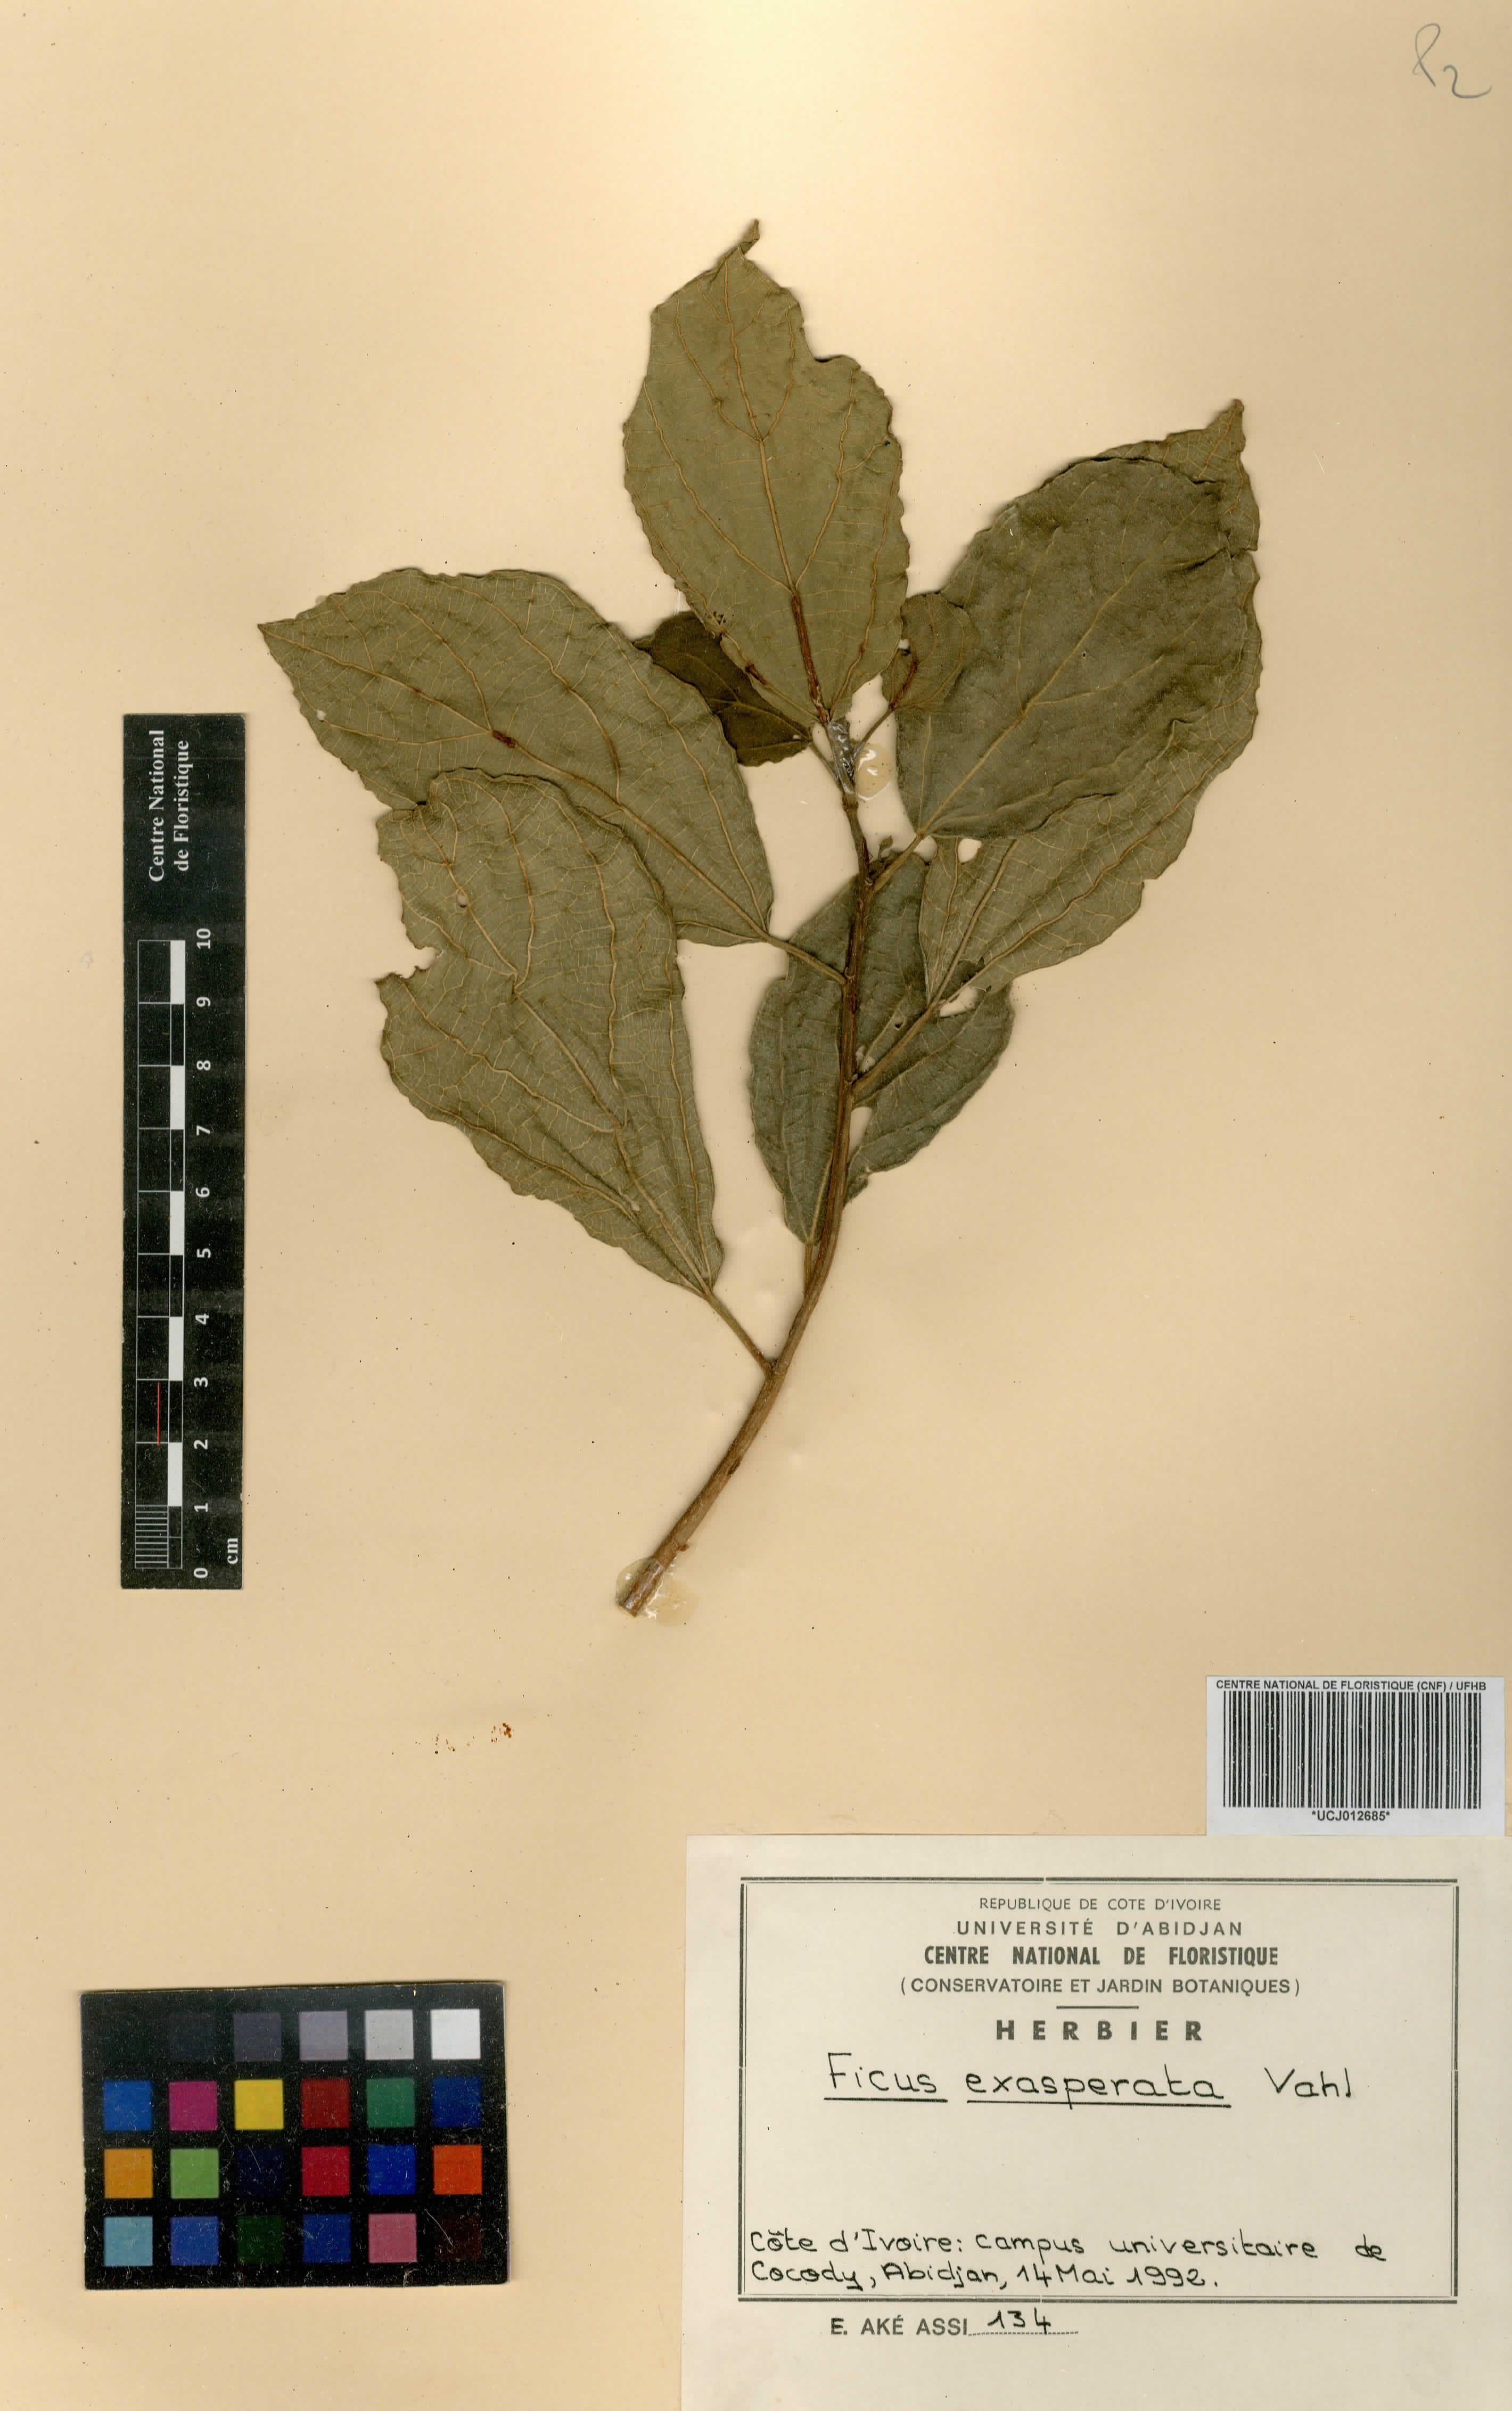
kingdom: Plantae
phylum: Tracheophyta
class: Magnoliopsida
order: Rosales
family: Moraceae
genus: Ficus
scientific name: Ficus ardisioides
